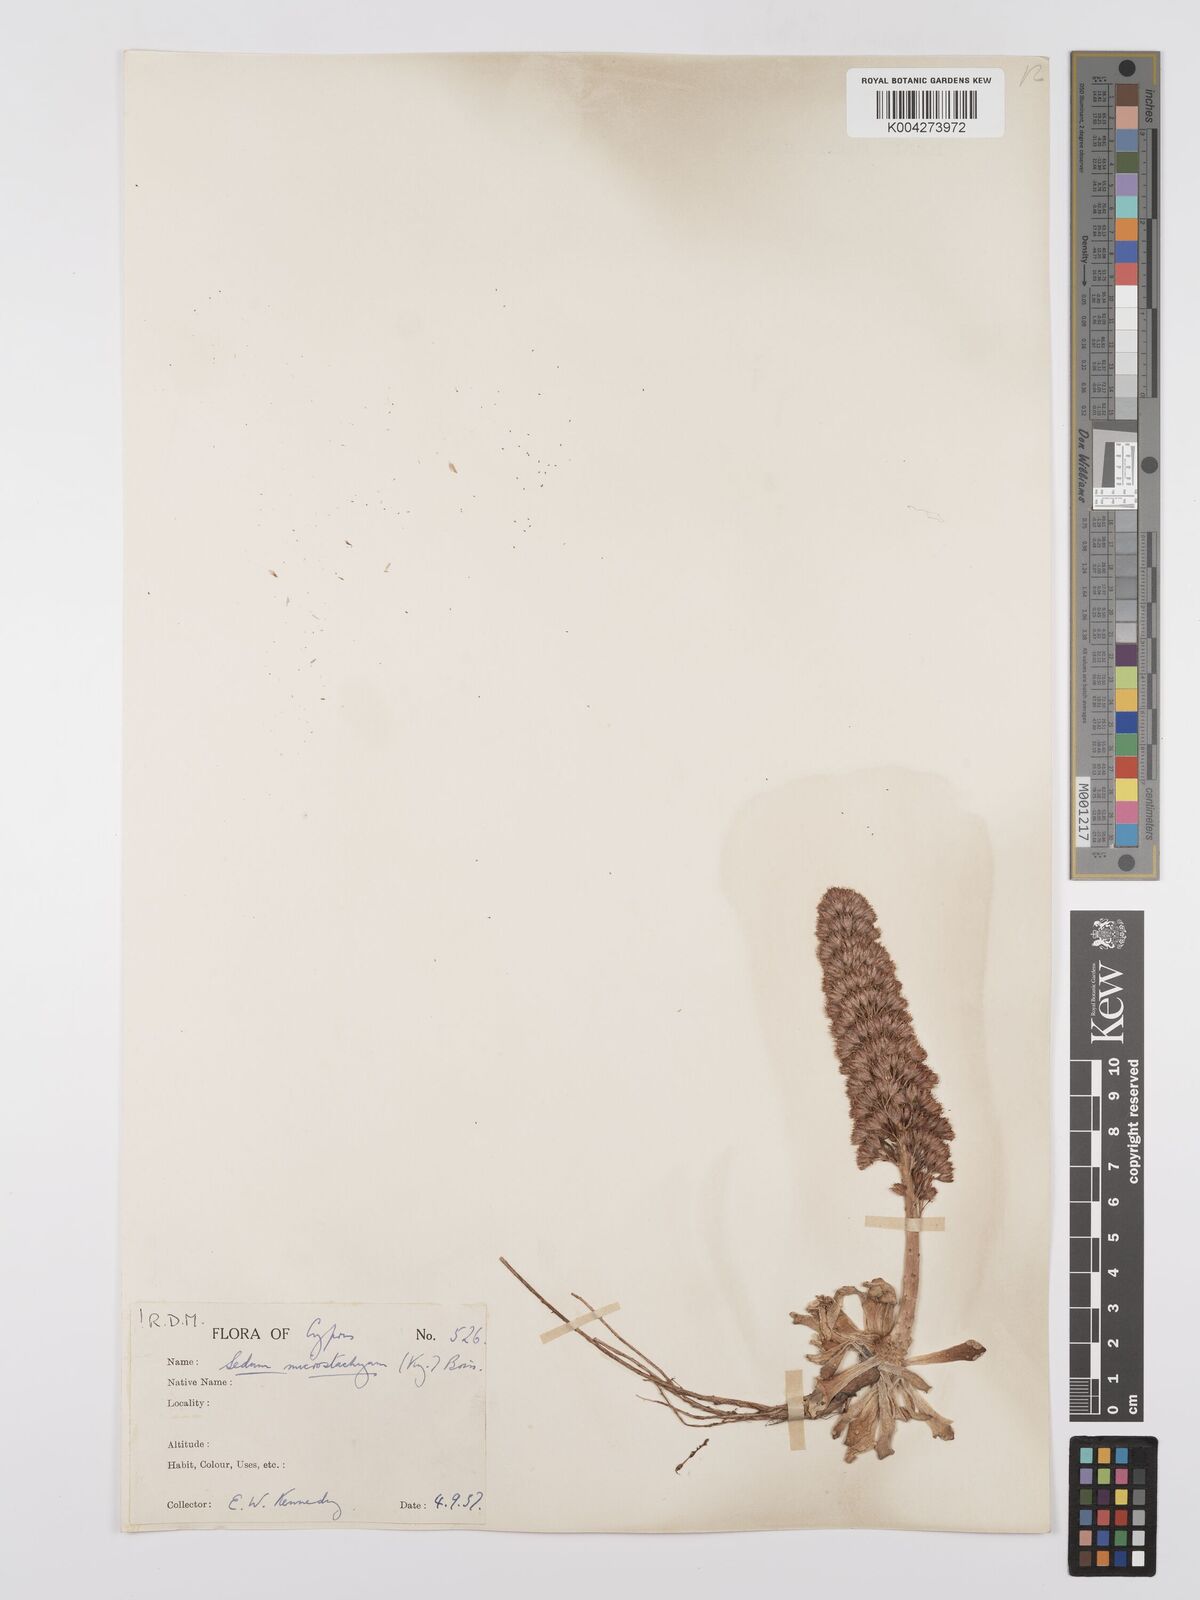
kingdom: Plantae
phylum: Tracheophyta
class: Magnoliopsida
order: Saxifragales
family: Crassulaceae
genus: Sedum
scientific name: Sedum microstachyum
